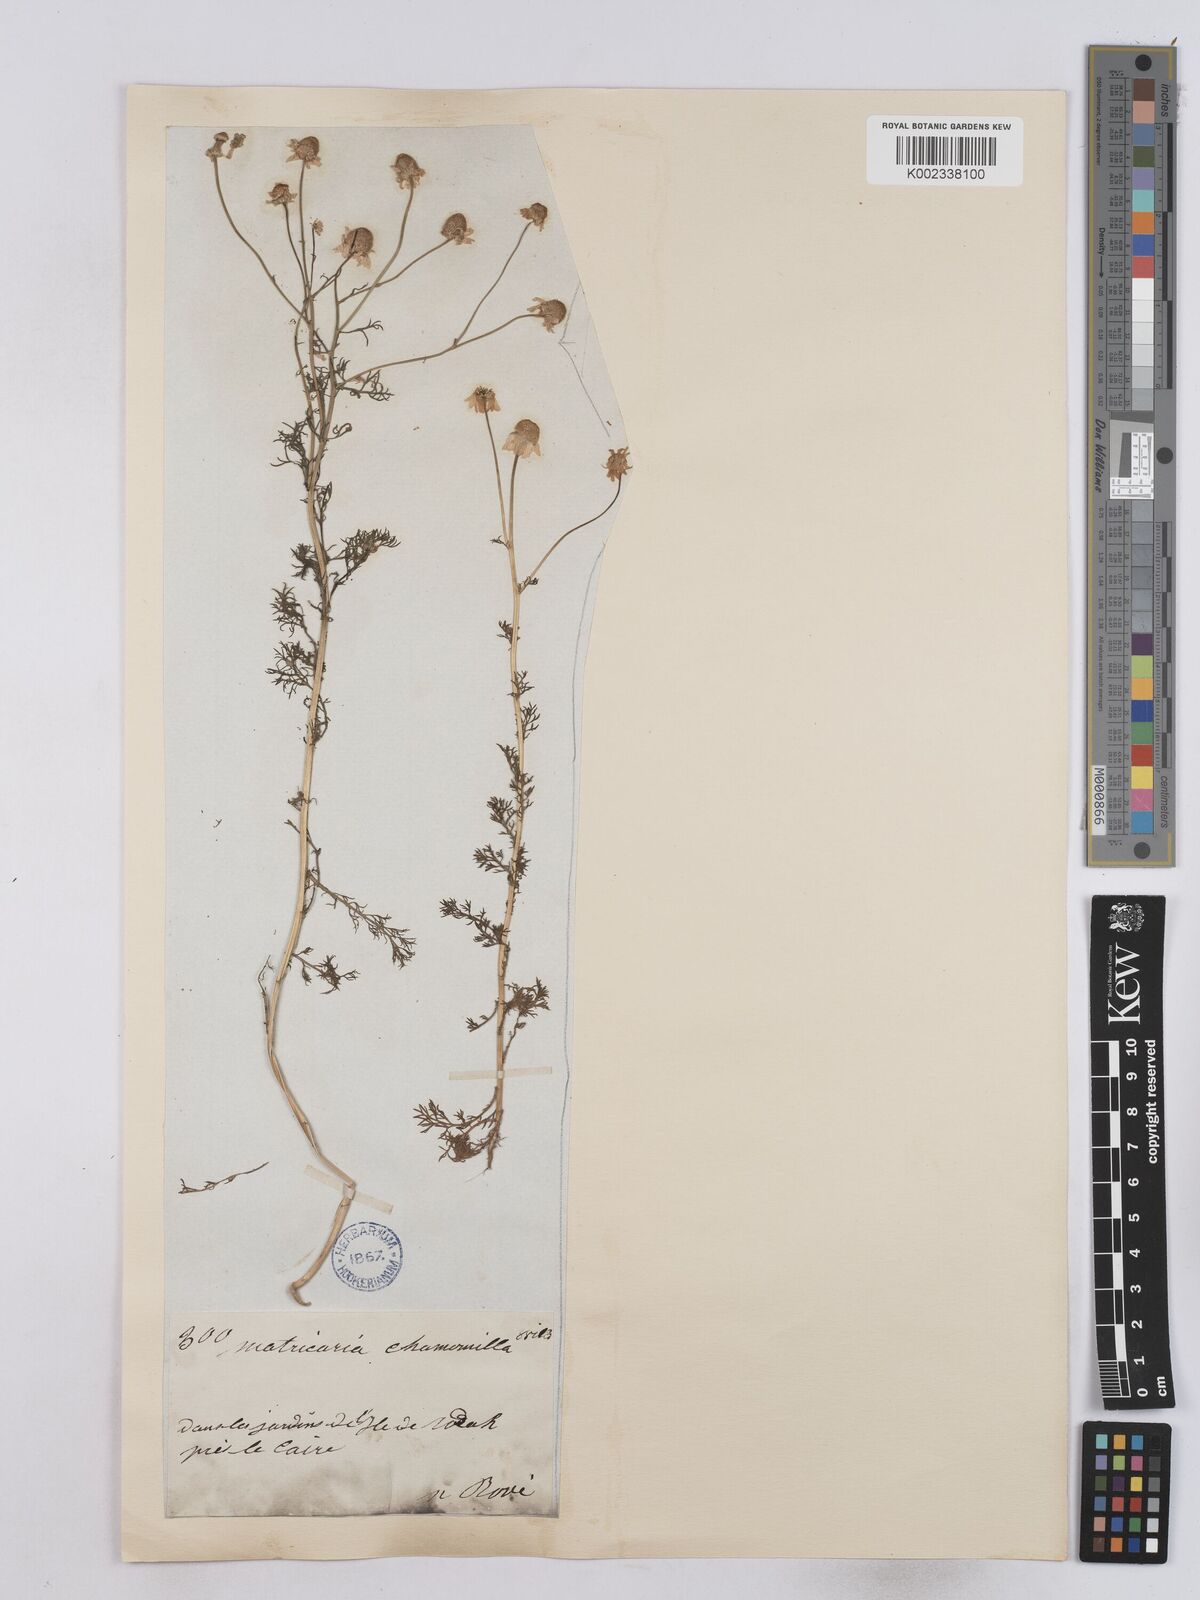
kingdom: Plantae
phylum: Tracheophyta
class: Magnoliopsida
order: Asterales
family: Asteraceae
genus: Matricaria
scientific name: Matricaria chamomilla
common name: Scented mayweed
